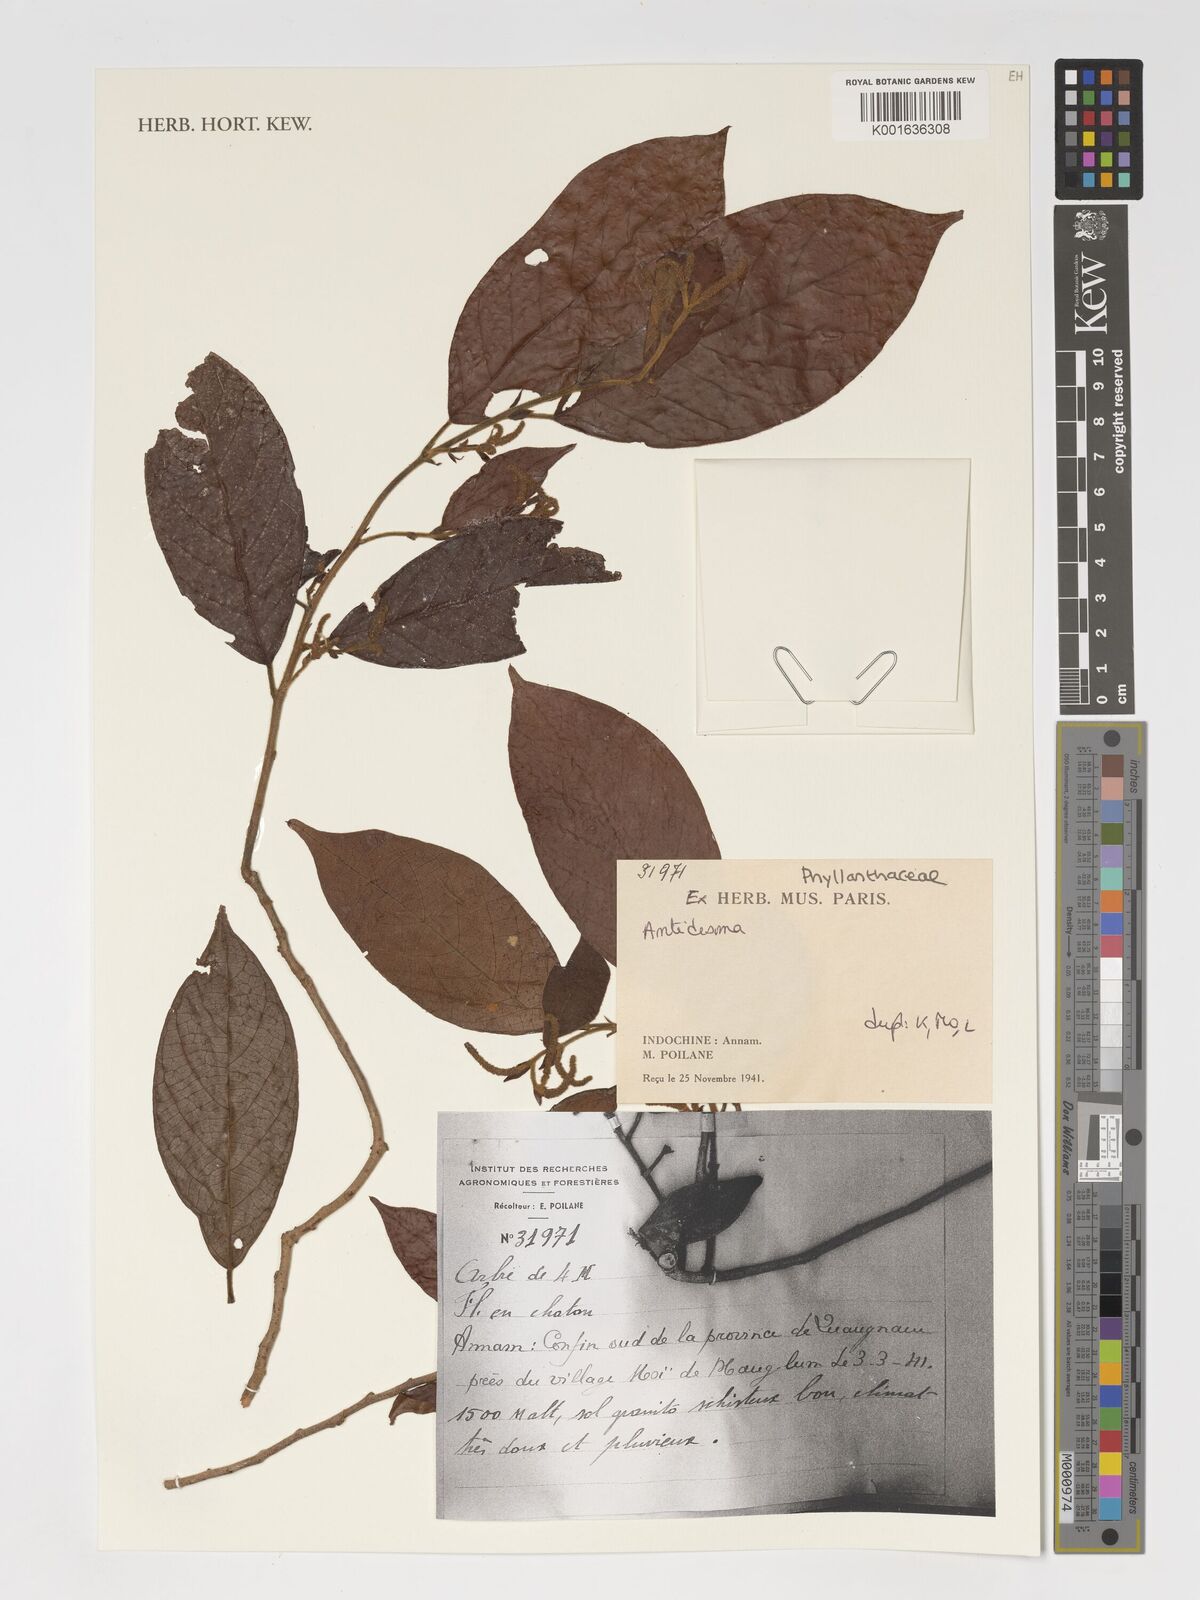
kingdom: Plantae
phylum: Tracheophyta
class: Magnoliopsida
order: Malpighiales
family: Phyllanthaceae
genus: Antidesma
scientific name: Antidesma
